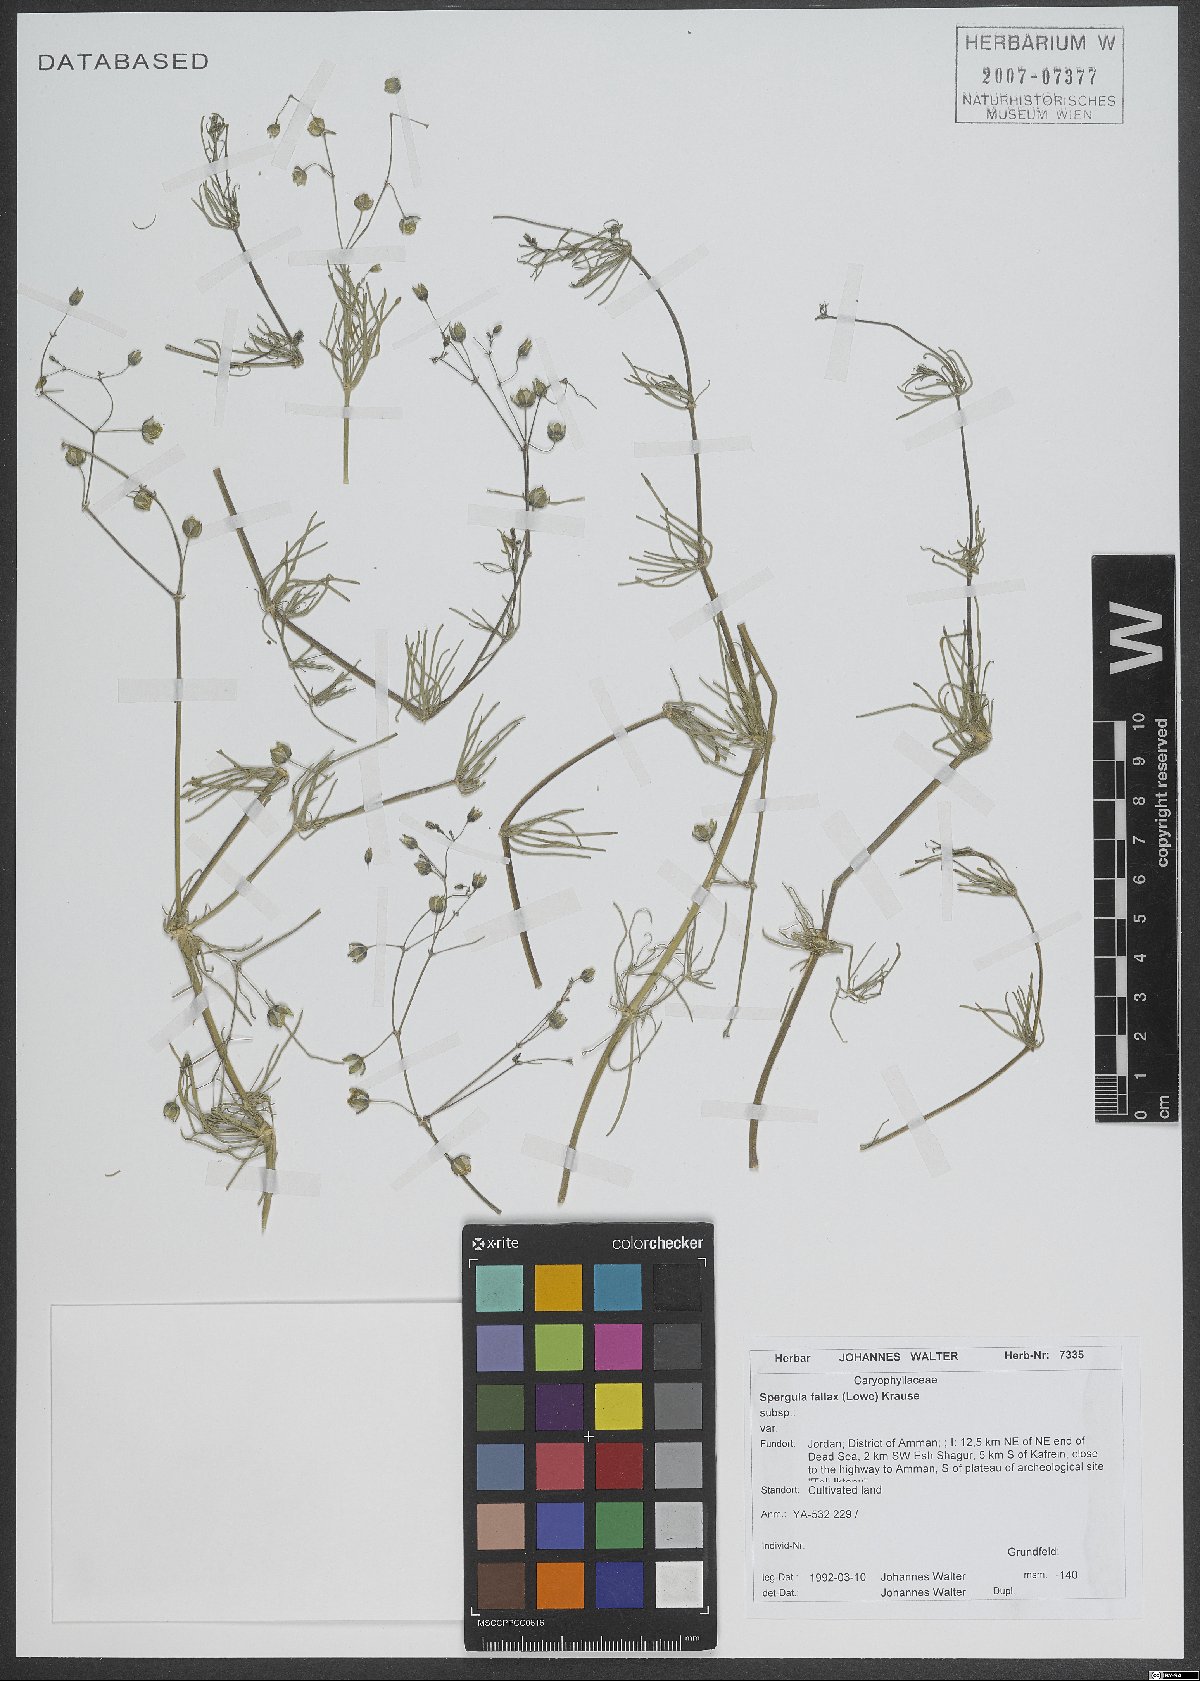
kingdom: Plantae
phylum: Tracheophyta
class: Magnoliopsida
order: Caryophyllales
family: Caryophyllaceae
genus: Spergularia
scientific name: Spergularia flaccida
